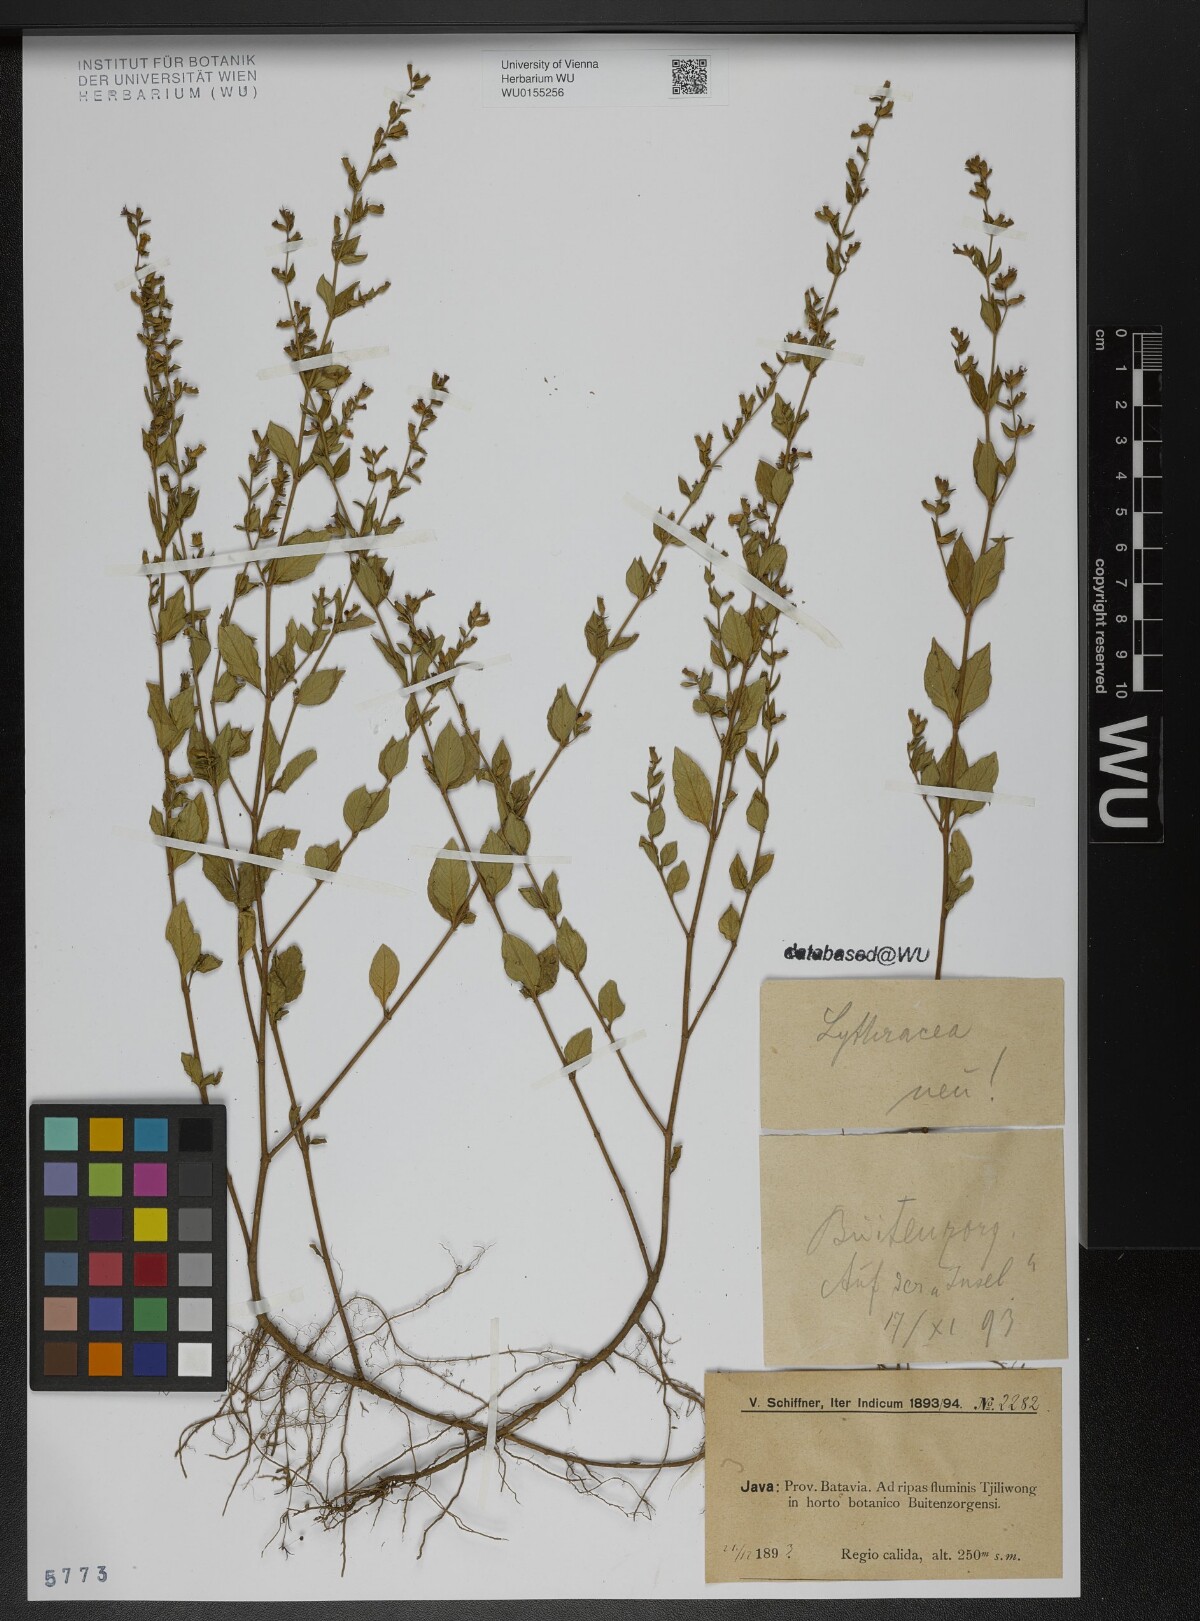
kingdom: Plantae
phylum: Tracheophyta
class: Magnoliopsida
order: Myrtales
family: Lythraceae
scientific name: Lythraceae
